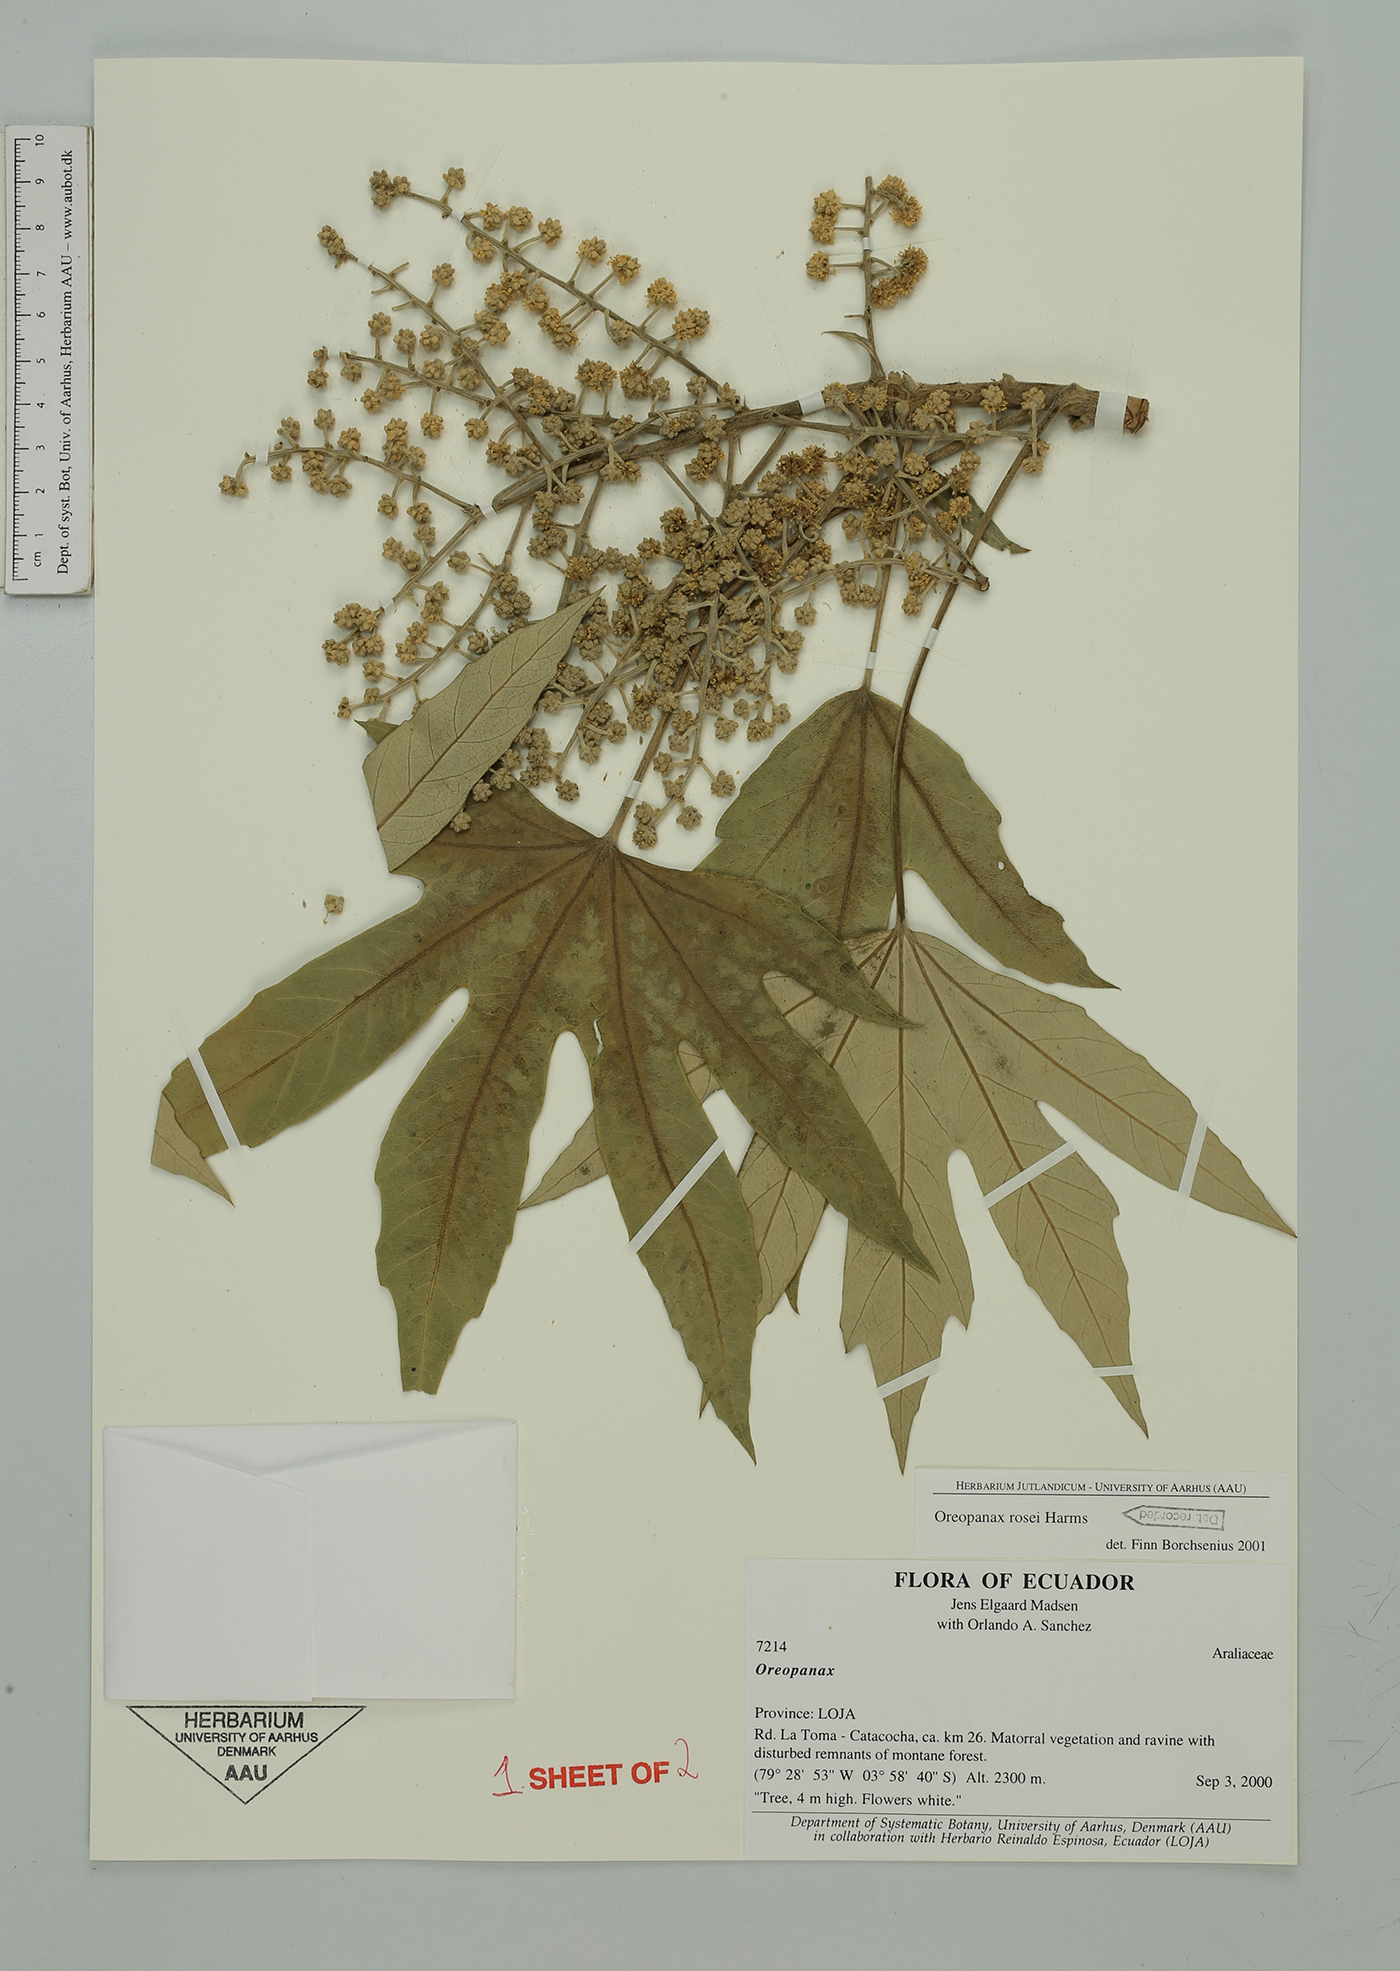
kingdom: Plantae
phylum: Tracheophyta
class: Magnoliopsida
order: Apiales
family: Araliaceae
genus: Oreopanax
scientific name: Oreopanax rosei
